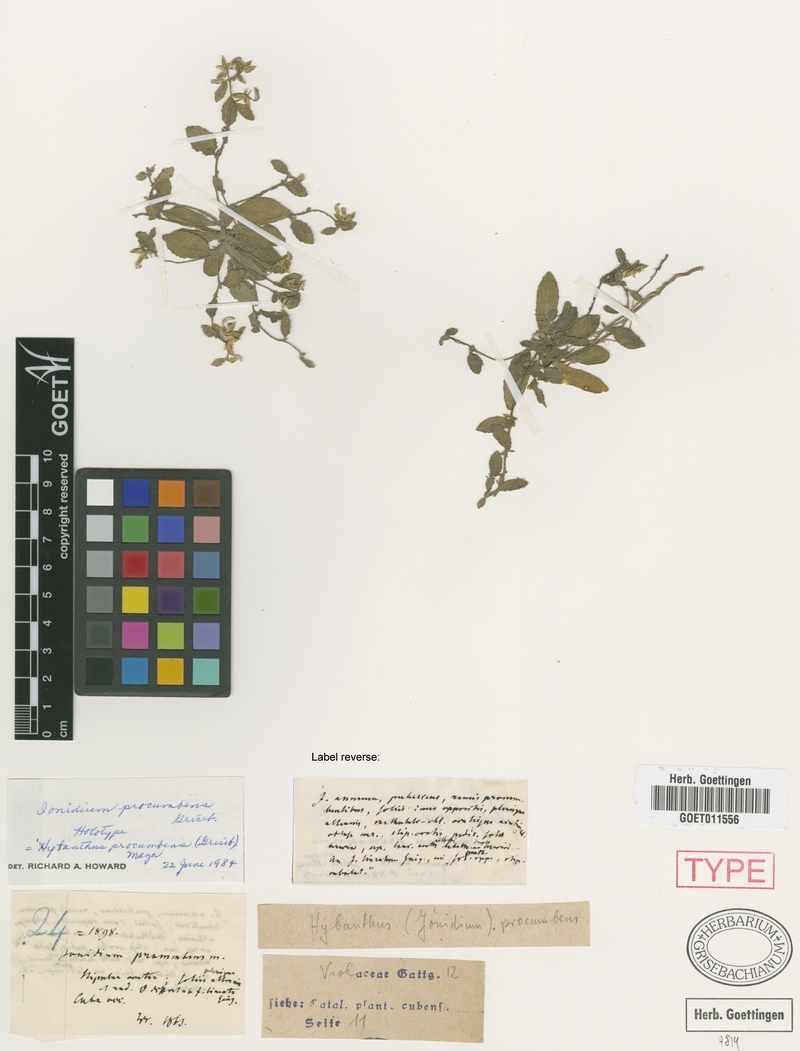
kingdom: Plantae
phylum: Tracheophyta
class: Magnoliopsida
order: Malpighiales
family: Violaceae
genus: Hybanthus
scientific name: Hybanthus procumbens
